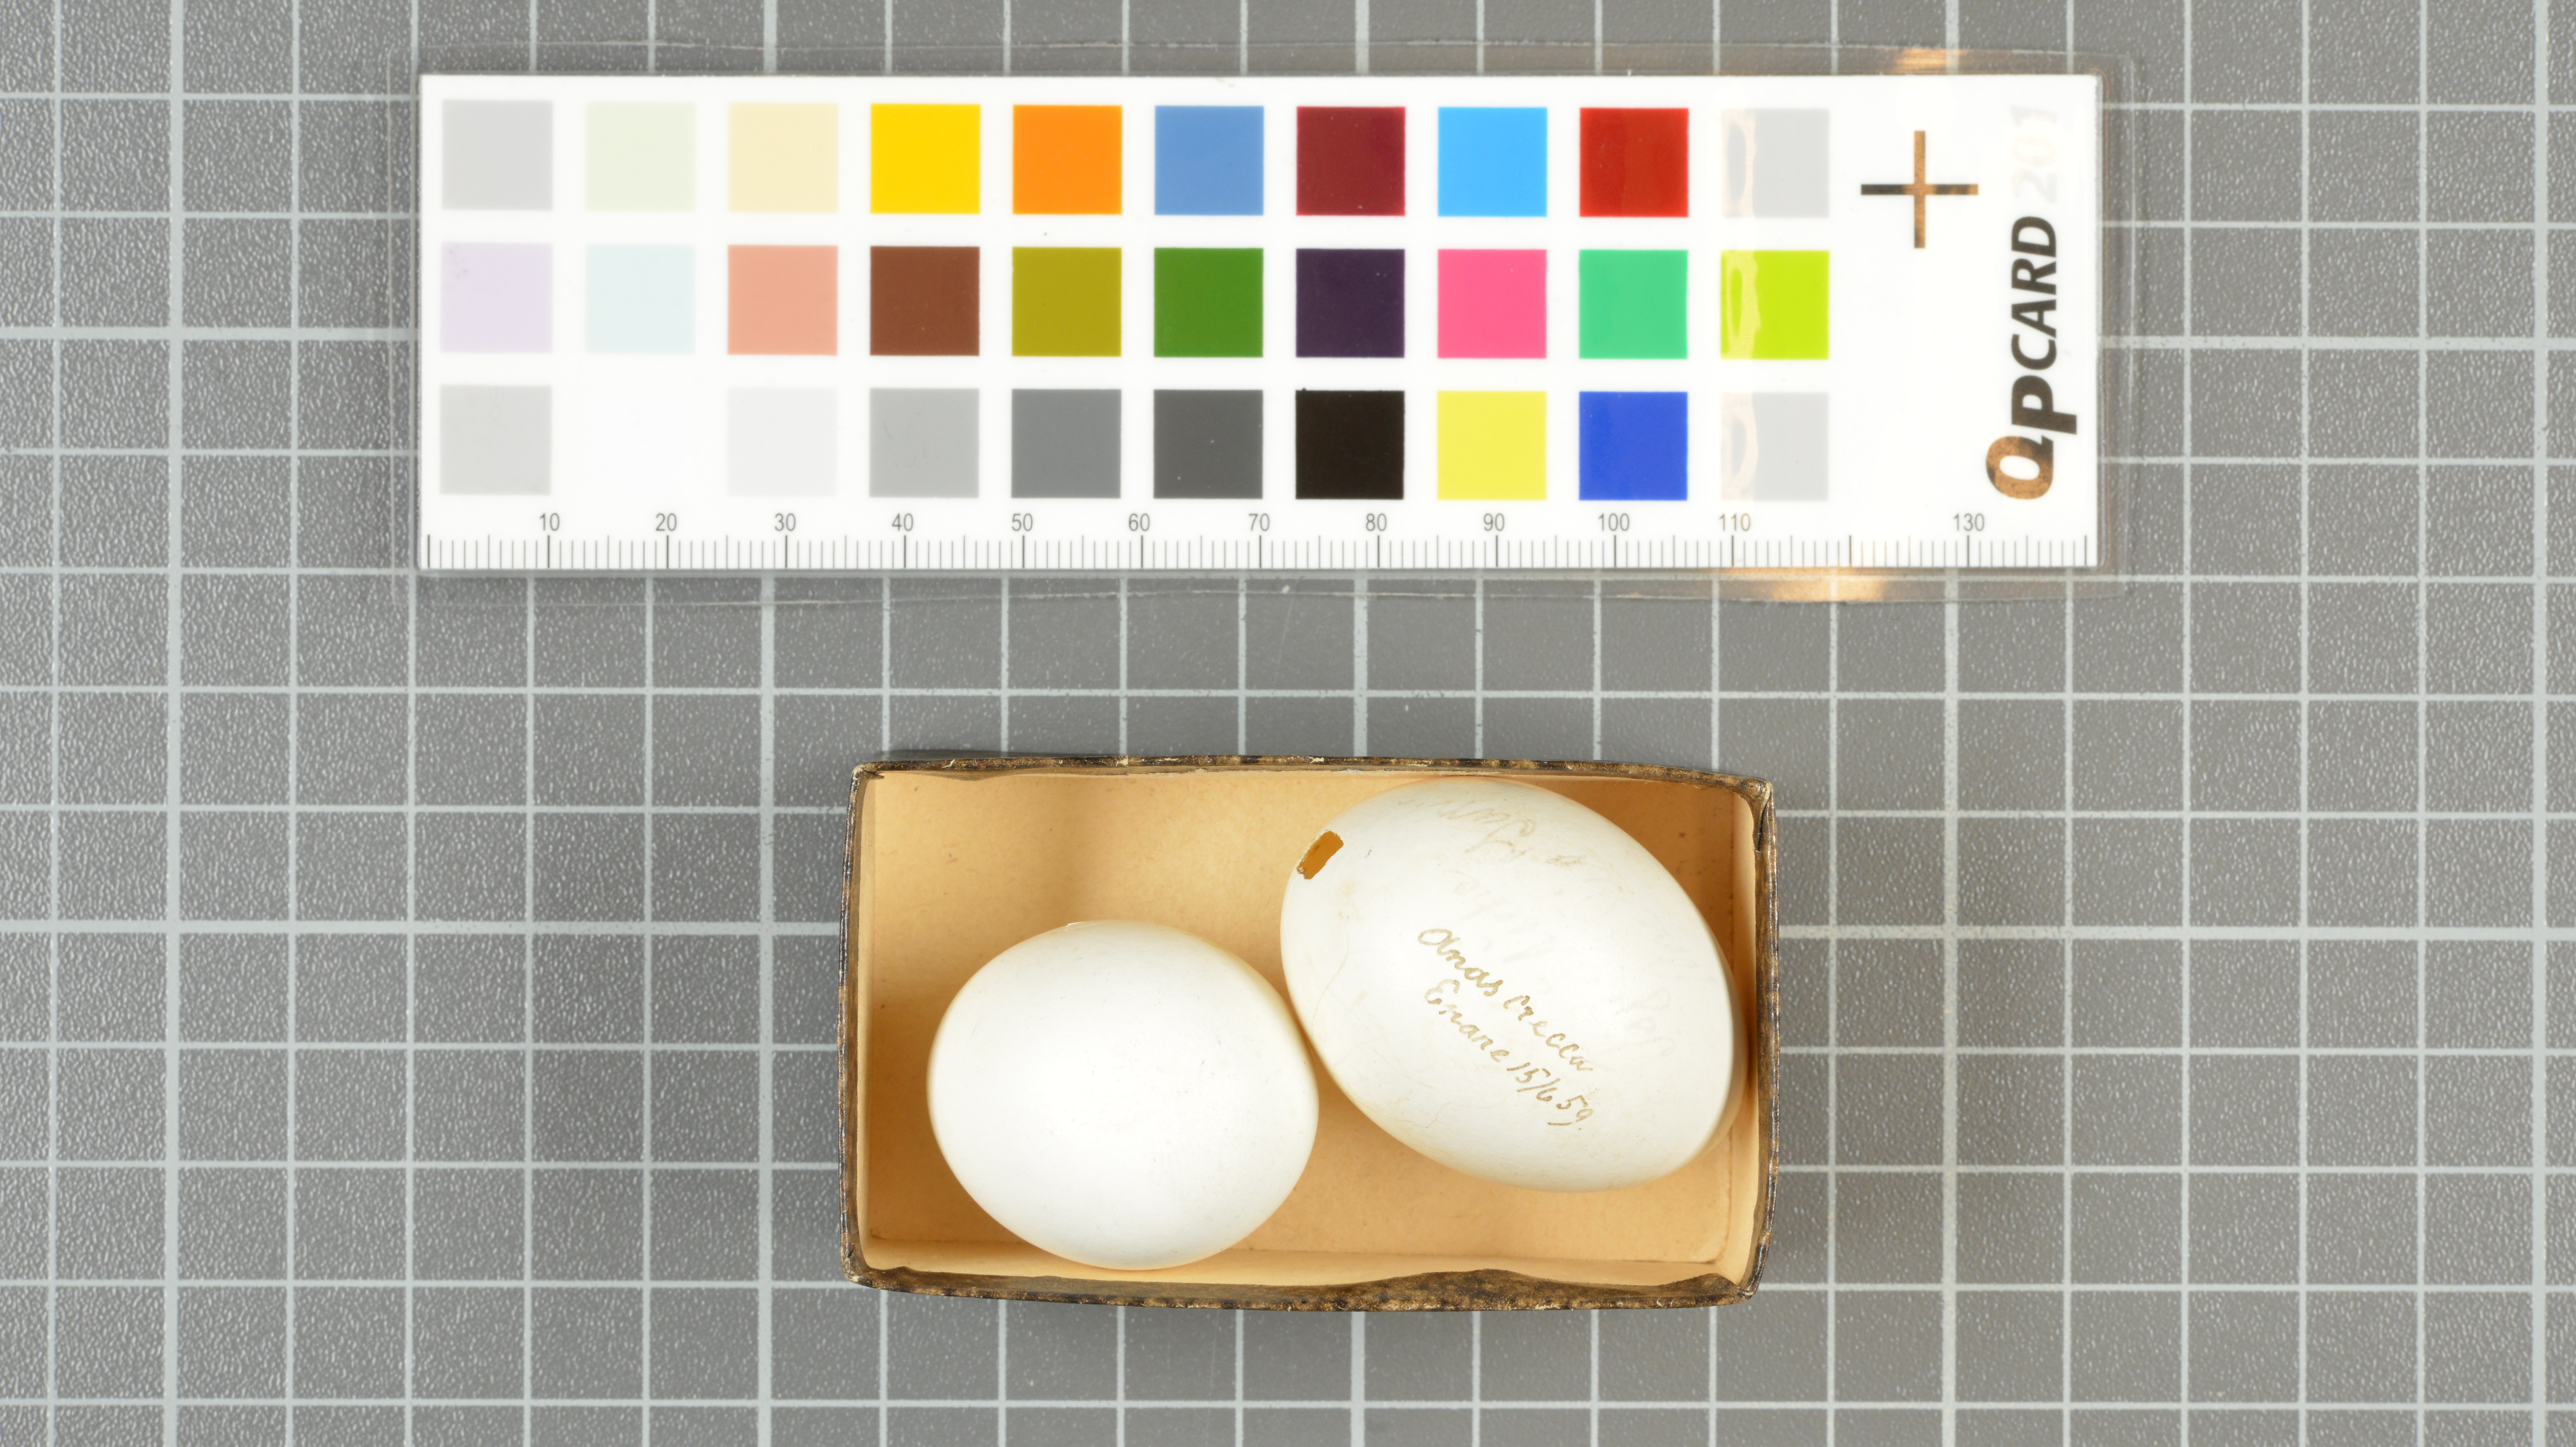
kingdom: Animalia
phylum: Chordata
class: Aves
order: Anseriformes
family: Anatidae
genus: Anas
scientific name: Anas crecca
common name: Eurasian teal
